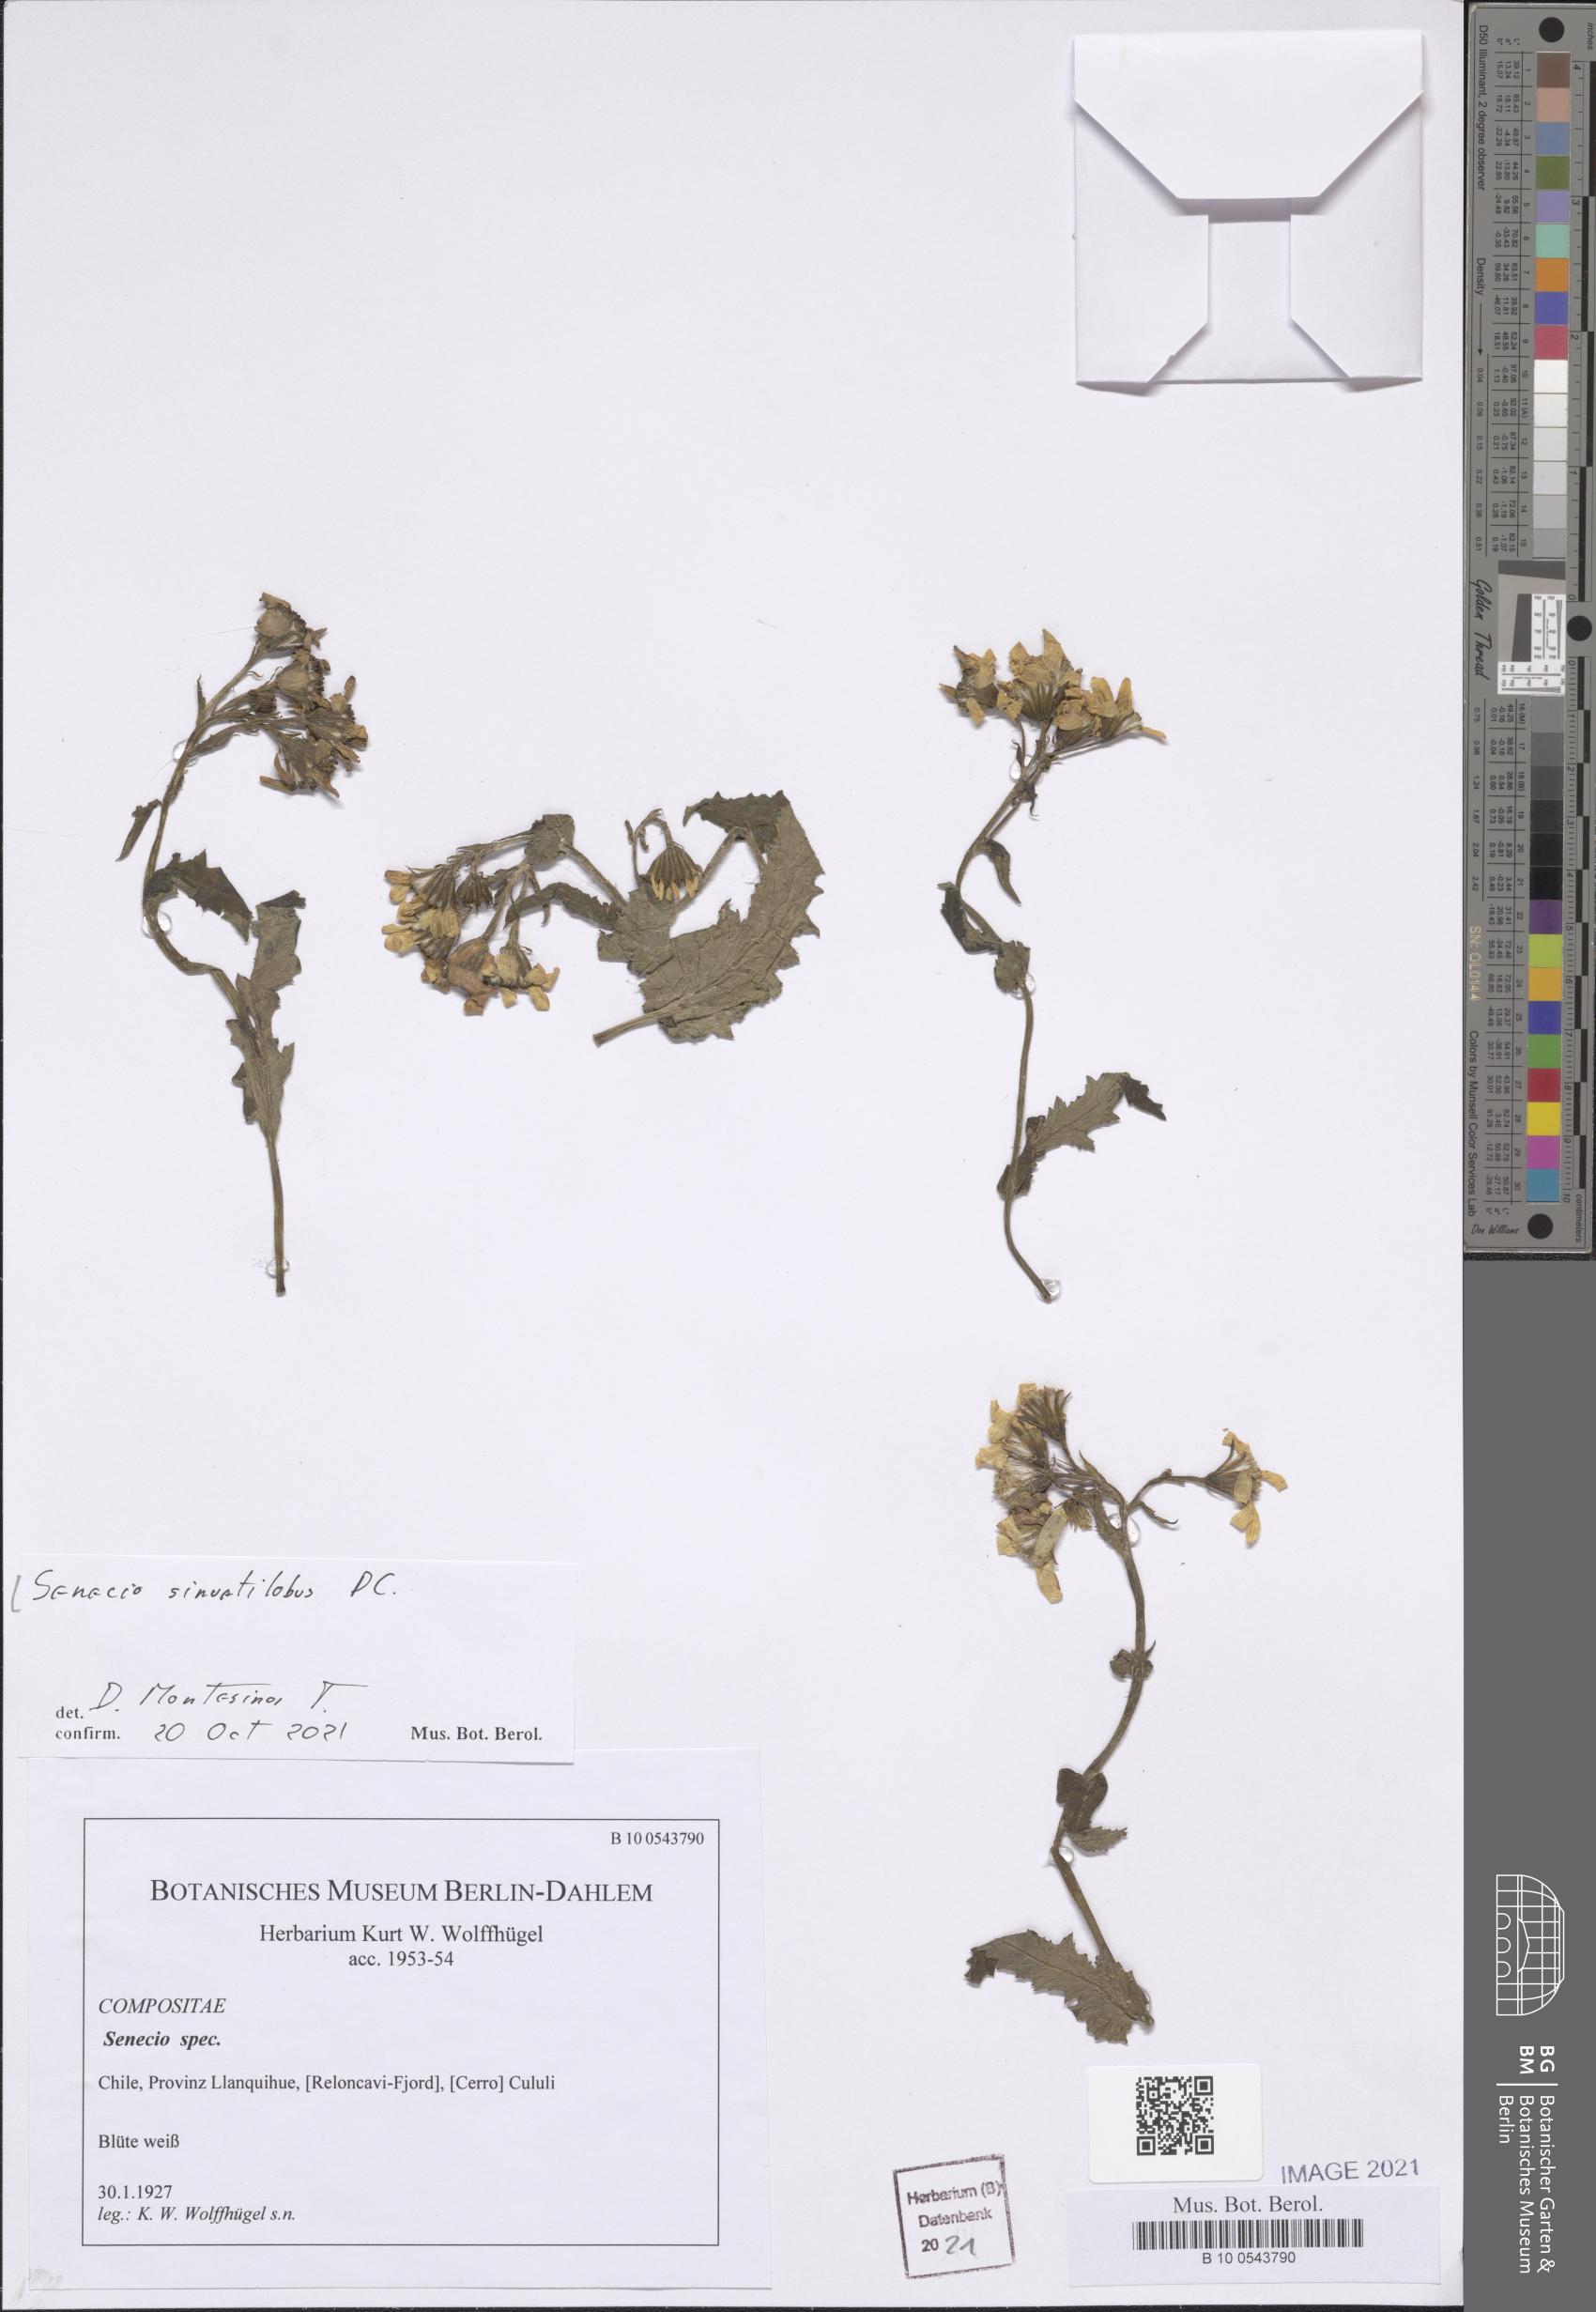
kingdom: Plantae
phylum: Tracheophyta
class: Magnoliopsida
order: Asterales
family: Asteraceae
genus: Senecio
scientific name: Senecio sinuatilobus
